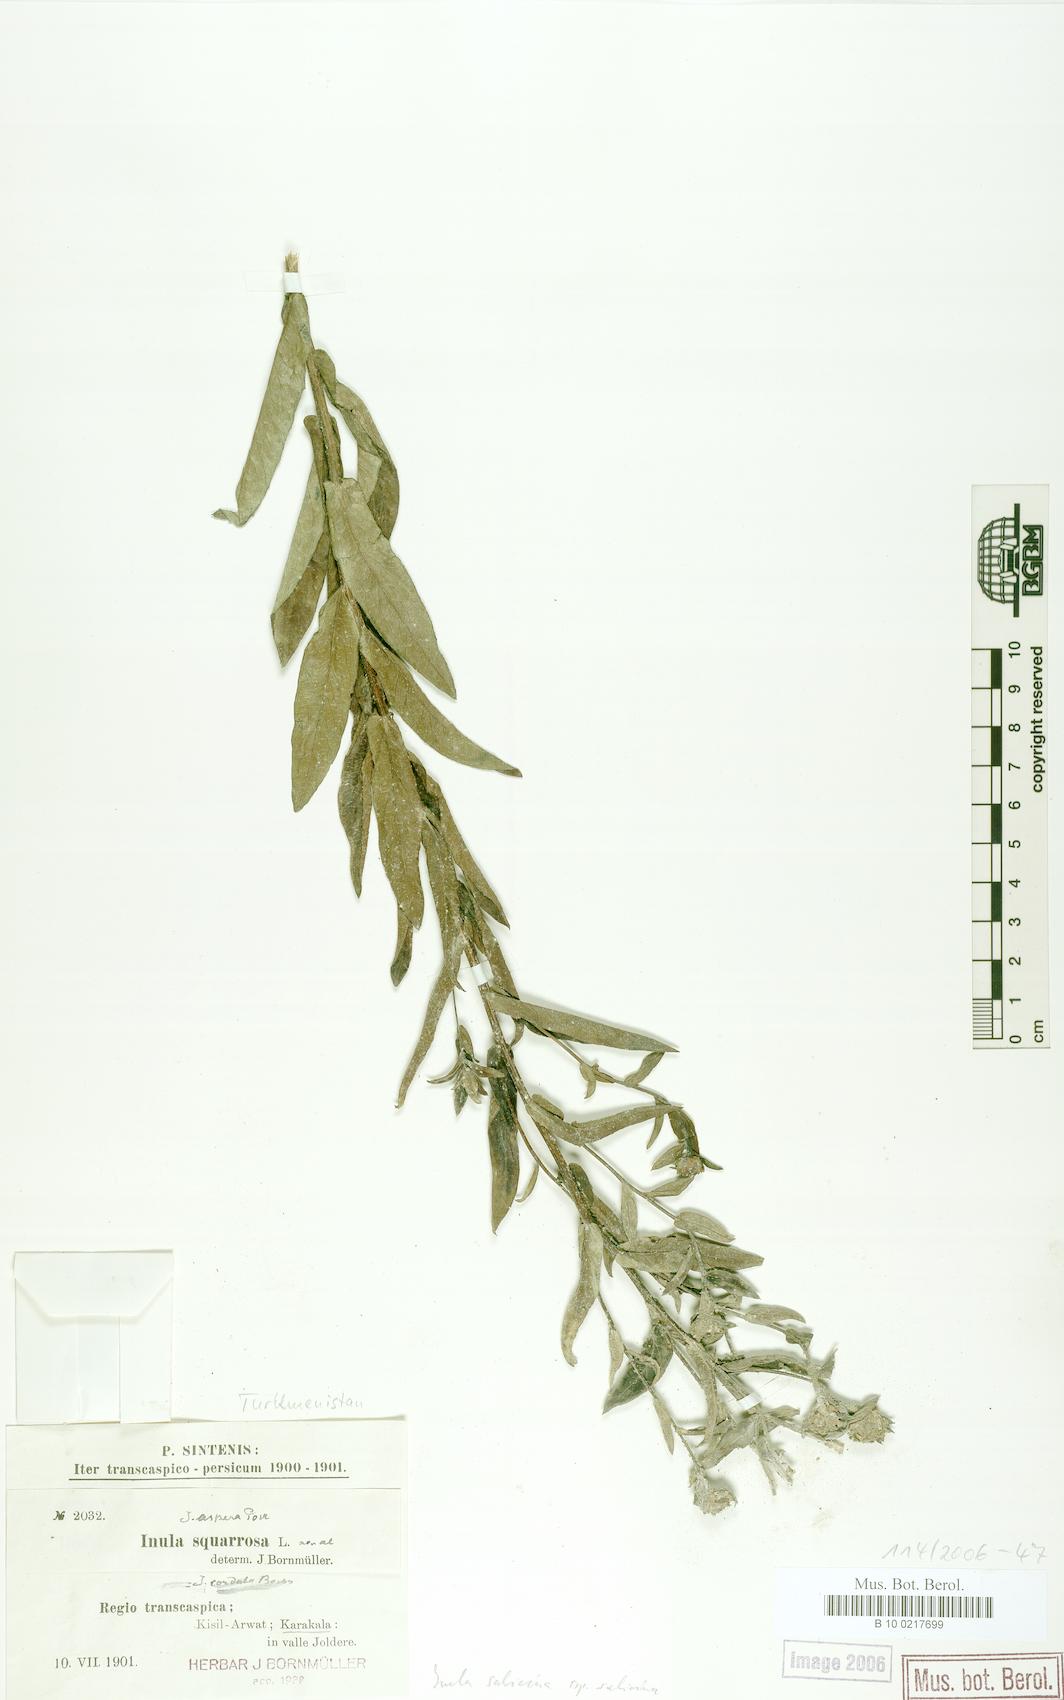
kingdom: Plantae
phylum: Tracheophyta
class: Magnoliopsida
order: Asterales
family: Asteraceae
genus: Pentanema
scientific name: Pentanema salicinum
